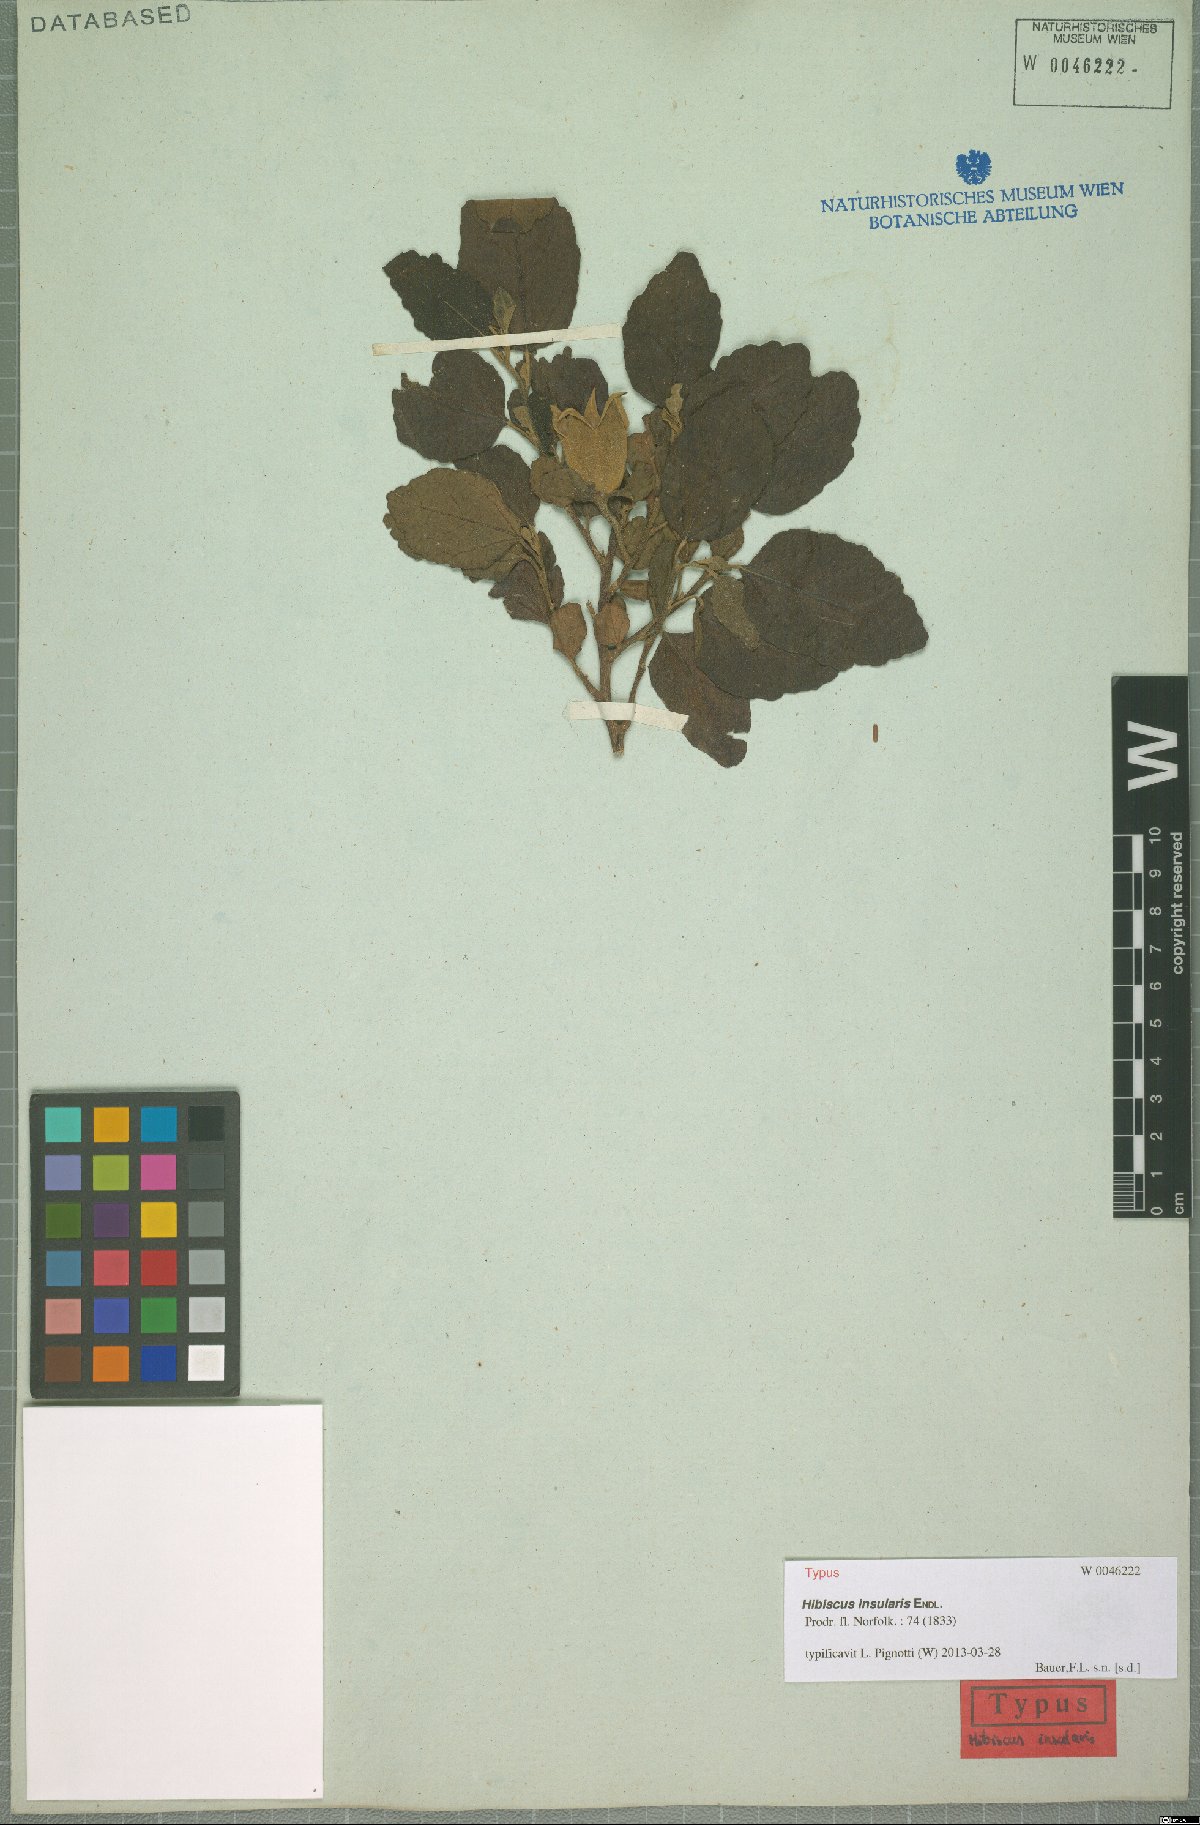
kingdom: Plantae
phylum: Tracheophyta
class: Magnoliopsida
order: Malvales
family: Malvaceae
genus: Hibiscus
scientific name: Hibiscus insularis
